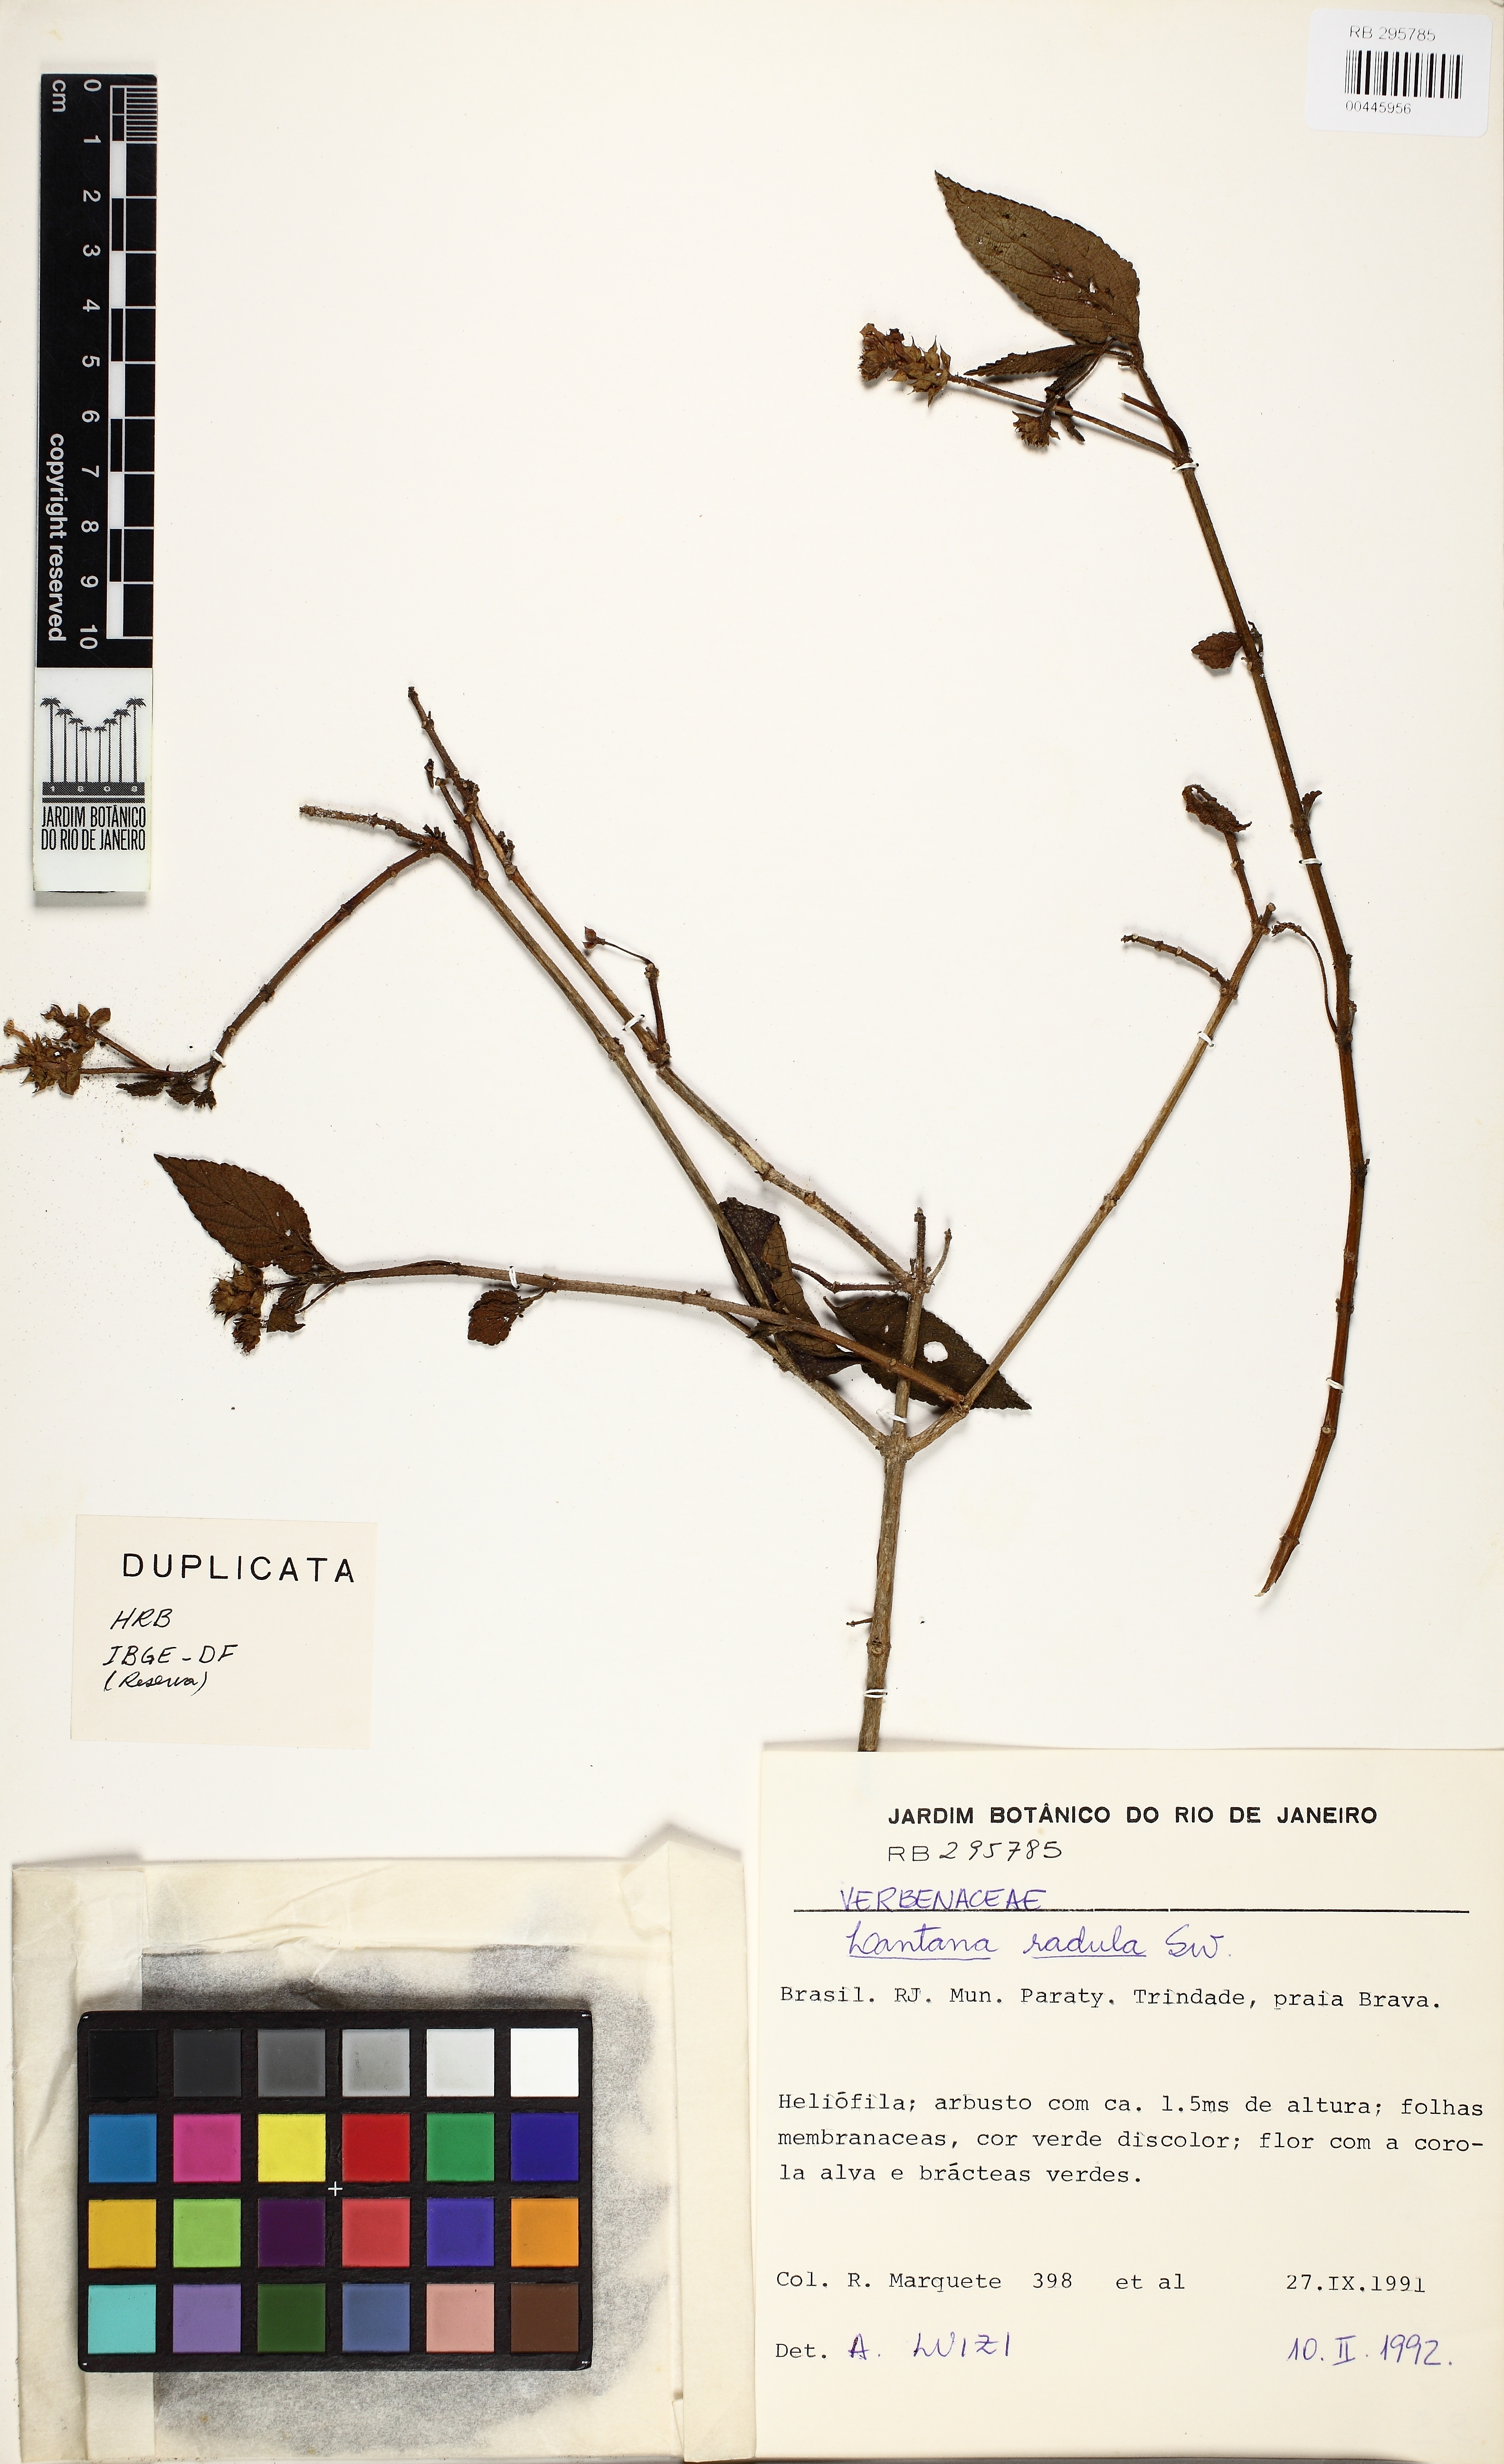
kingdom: Plantae
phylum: Tracheophyta
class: Magnoliopsida
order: Lamiales
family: Verbenaceae
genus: Lantana
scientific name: Lantana radula
